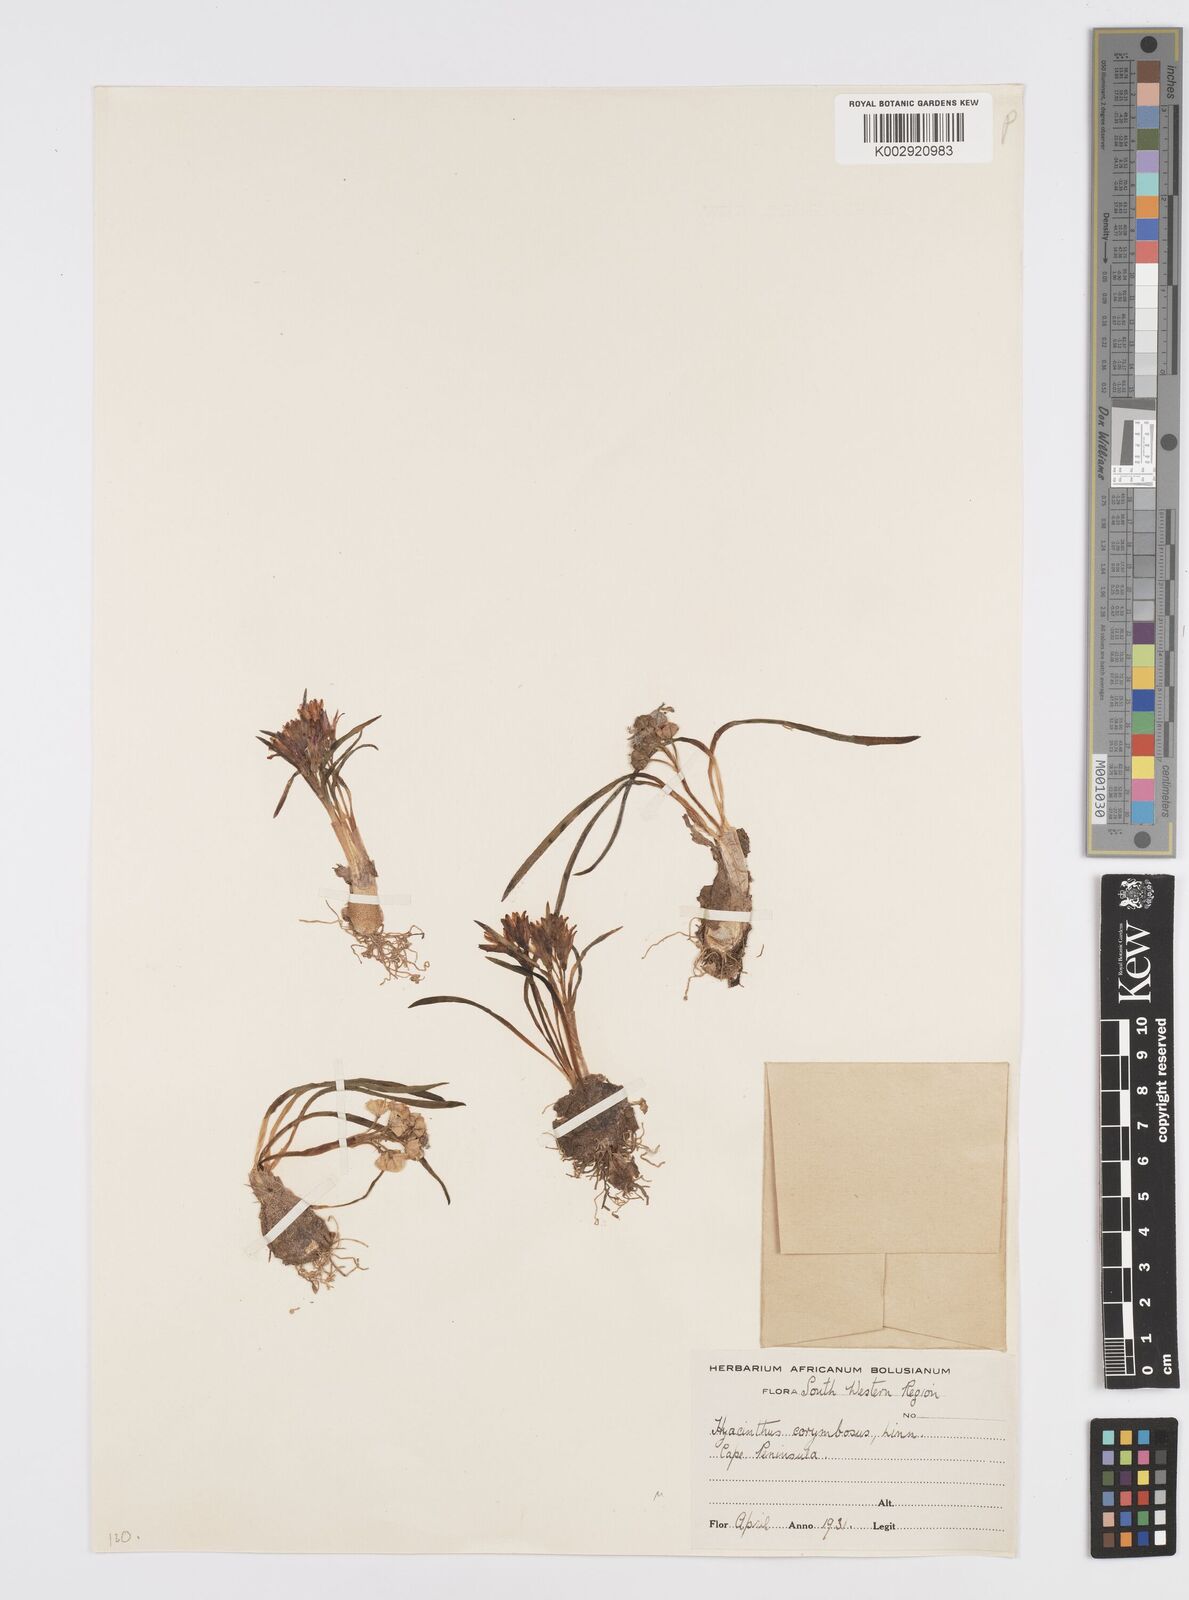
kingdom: Plantae
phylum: Tracheophyta
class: Liliopsida
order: Asparagales
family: Asparagaceae
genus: Lachenalia
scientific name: Lachenalia corymbosa
